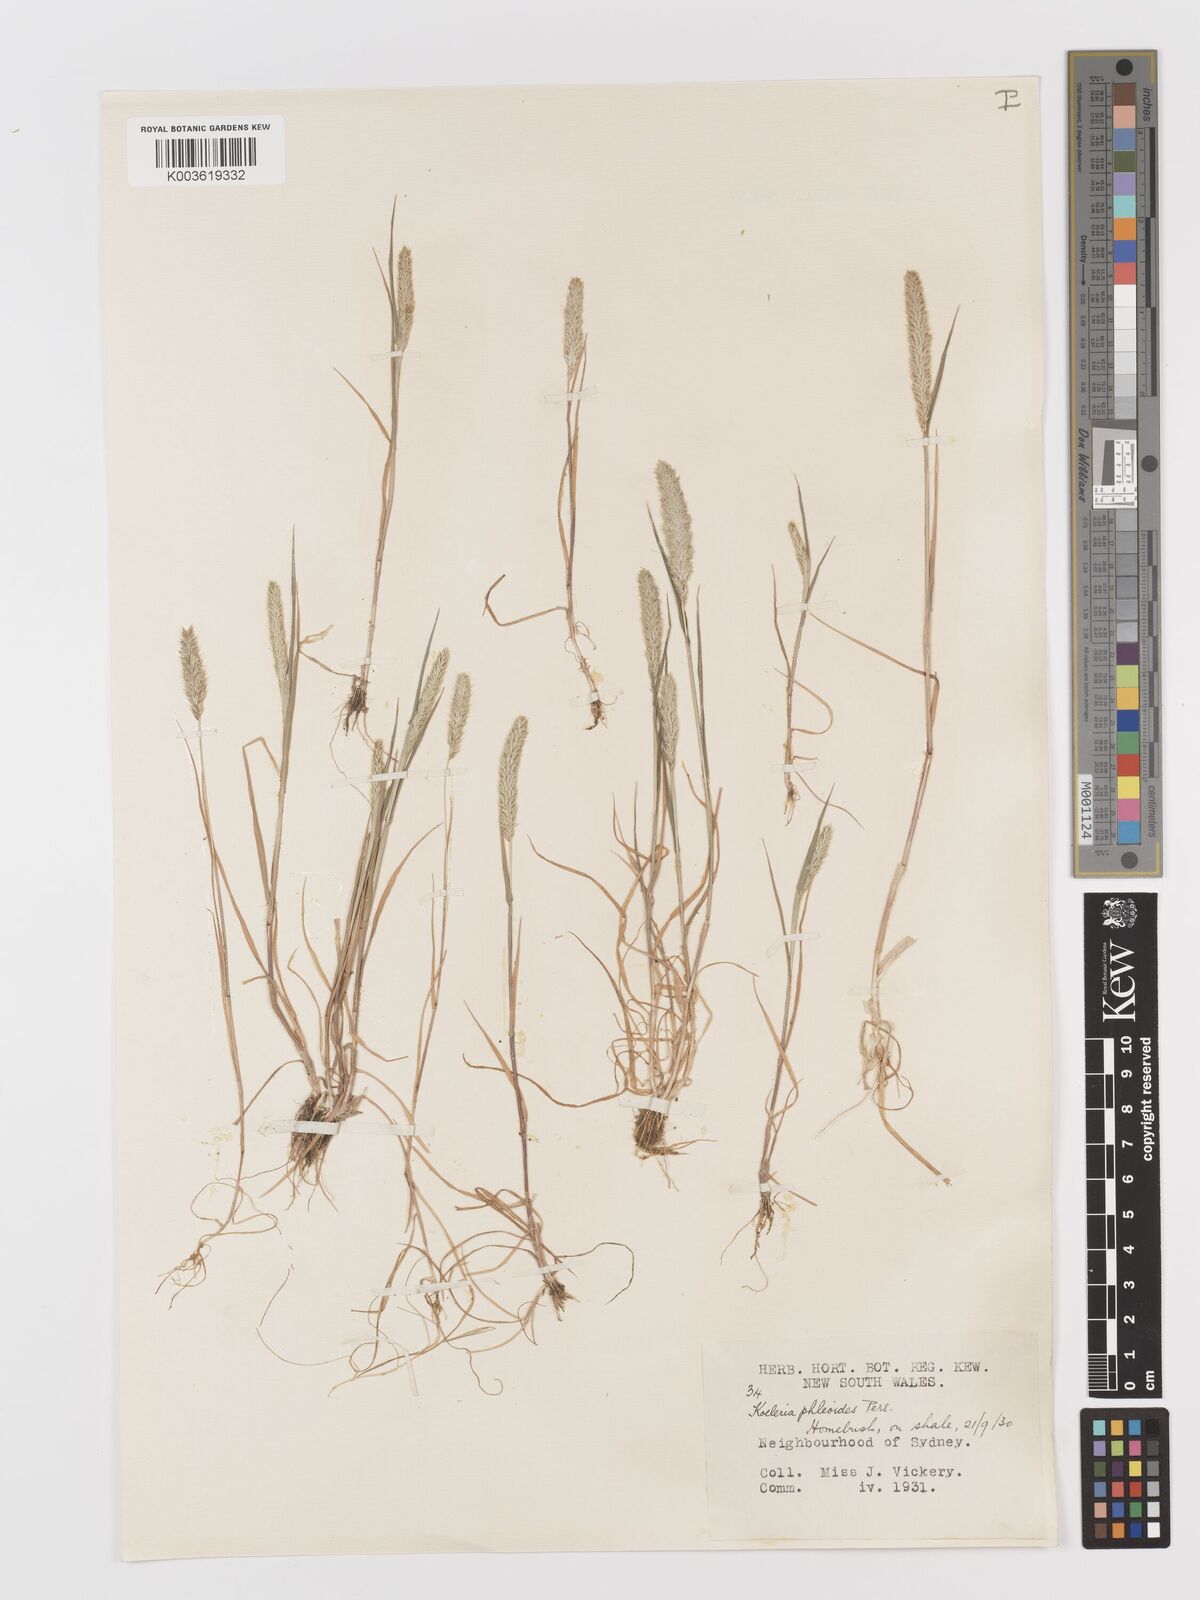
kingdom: Plantae
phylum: Tracheophyta
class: Liliopsida
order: Poales
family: Poaceae
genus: Rostraria
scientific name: Rostraria cristata
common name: Mediterranean hair-grass
